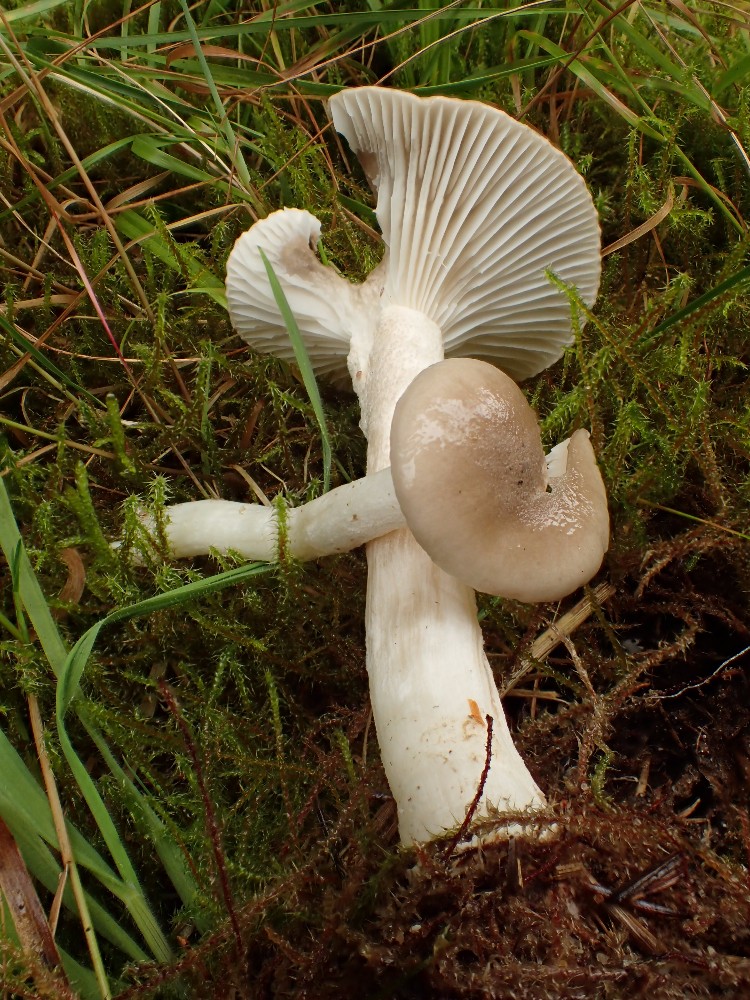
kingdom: Fungi
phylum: Basidiomycota
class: Agaricomycetes
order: Agaricales
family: Hygrophoraceae
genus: Hygrophorus
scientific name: Hygrophorus agathosmus
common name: vellugtende sneglehat
